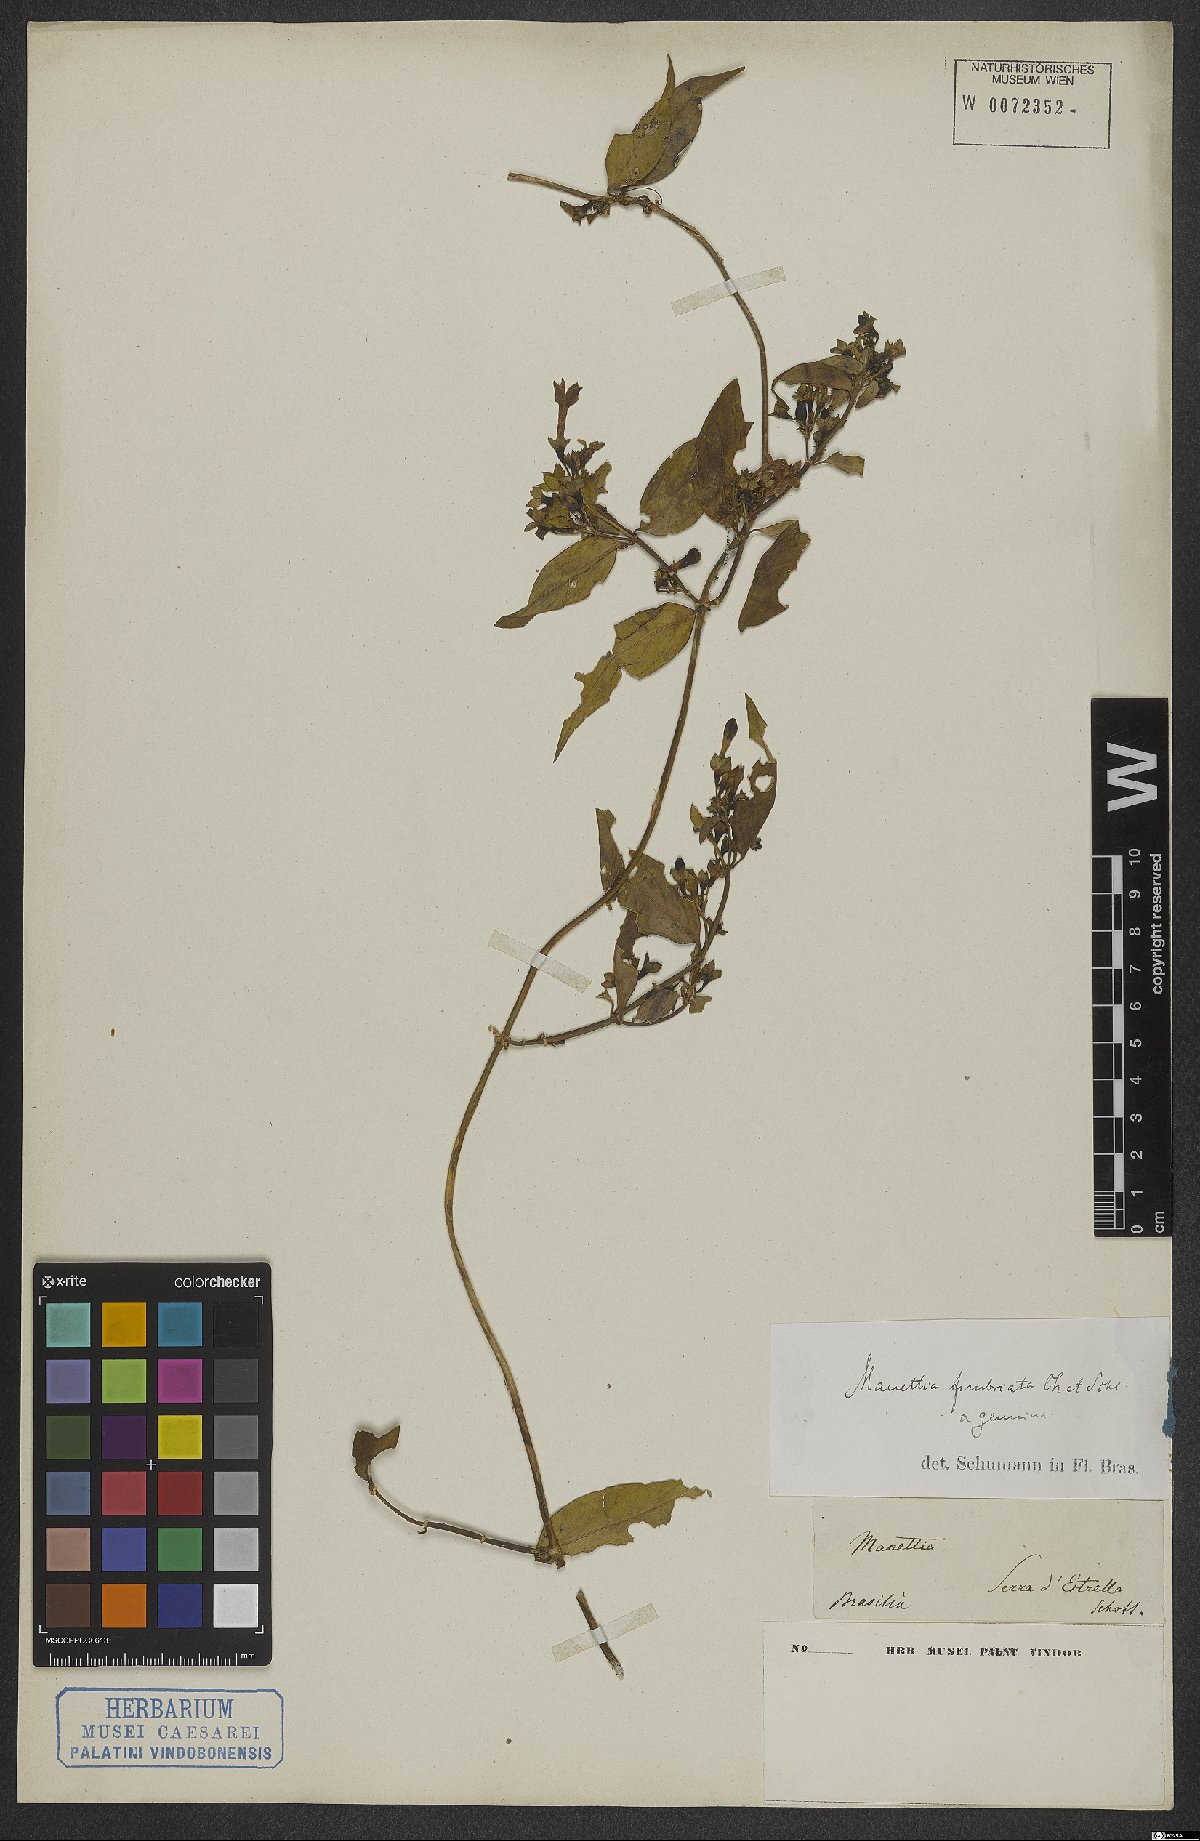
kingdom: Plantae
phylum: Tracheophyta
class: Magnoliopsida
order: Gentianales
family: Rubiaceae
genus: Manettia
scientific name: Manettia fimbriata
